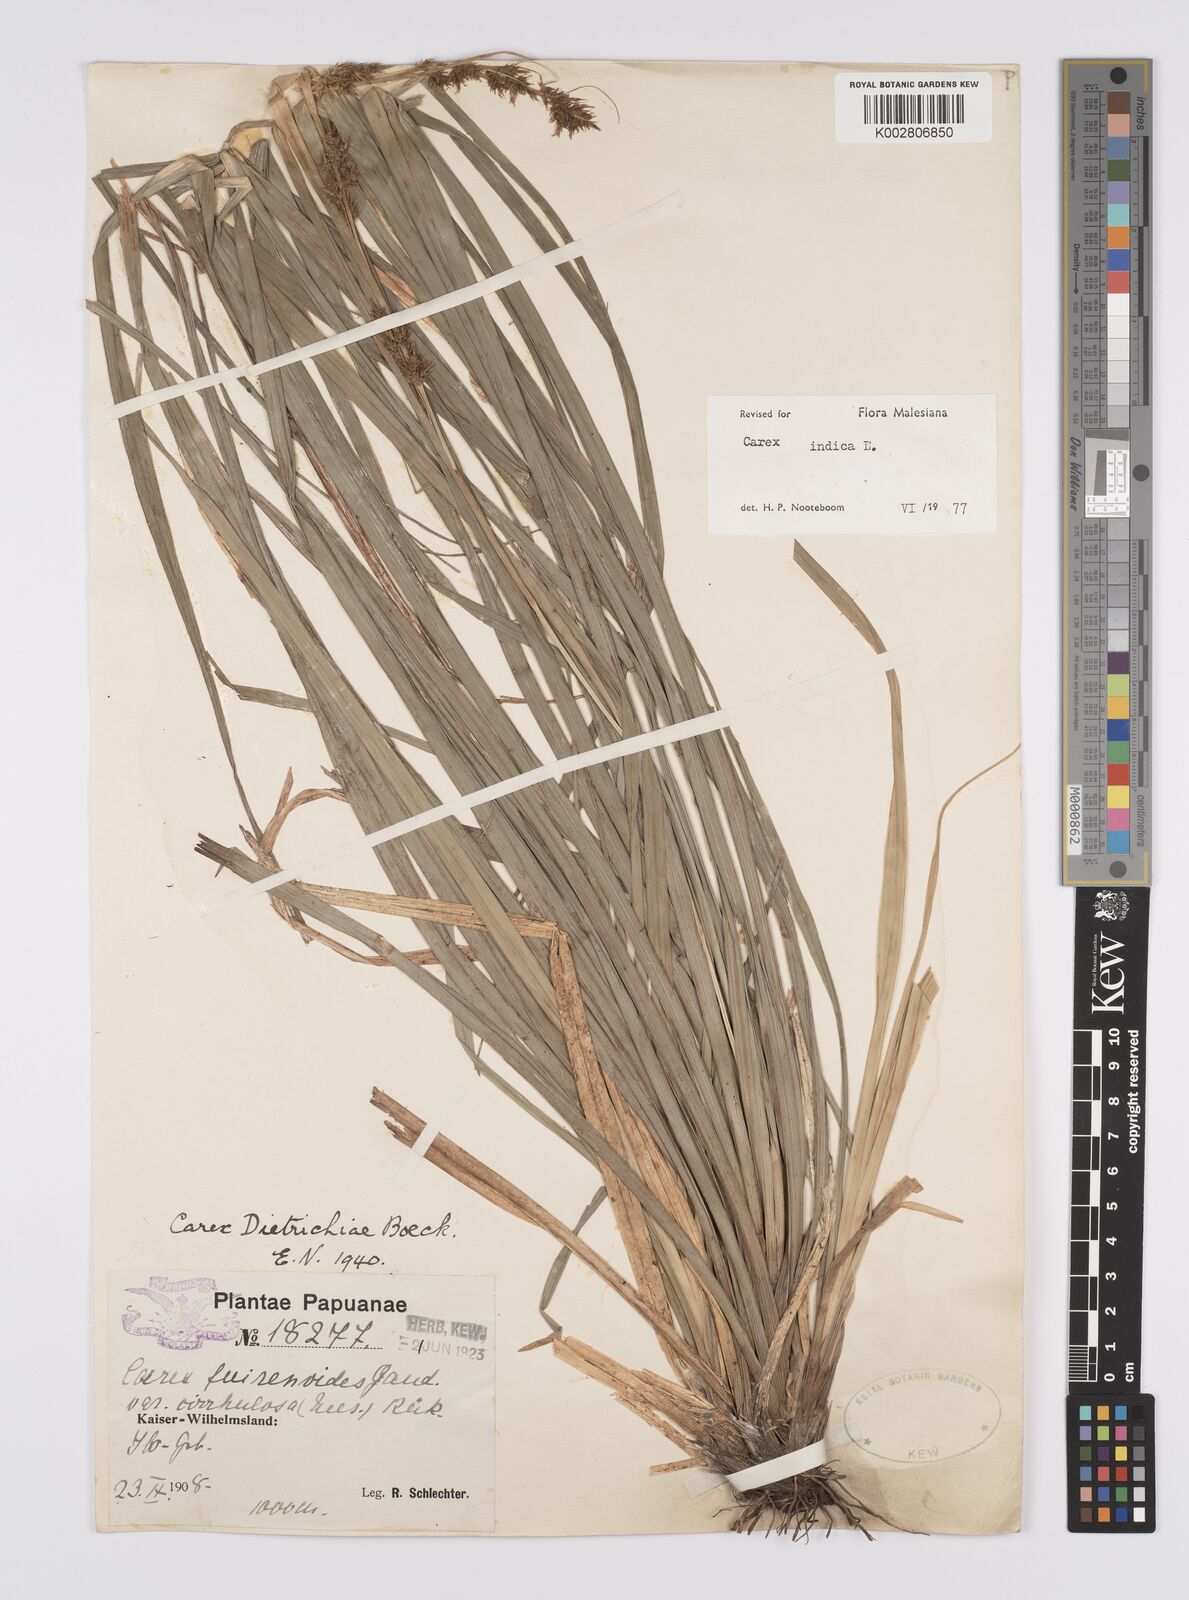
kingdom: Plantae
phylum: Tracheophyta
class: Liliopsida
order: Poales
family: Cyperaceae
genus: Carex
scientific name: Carex indica
